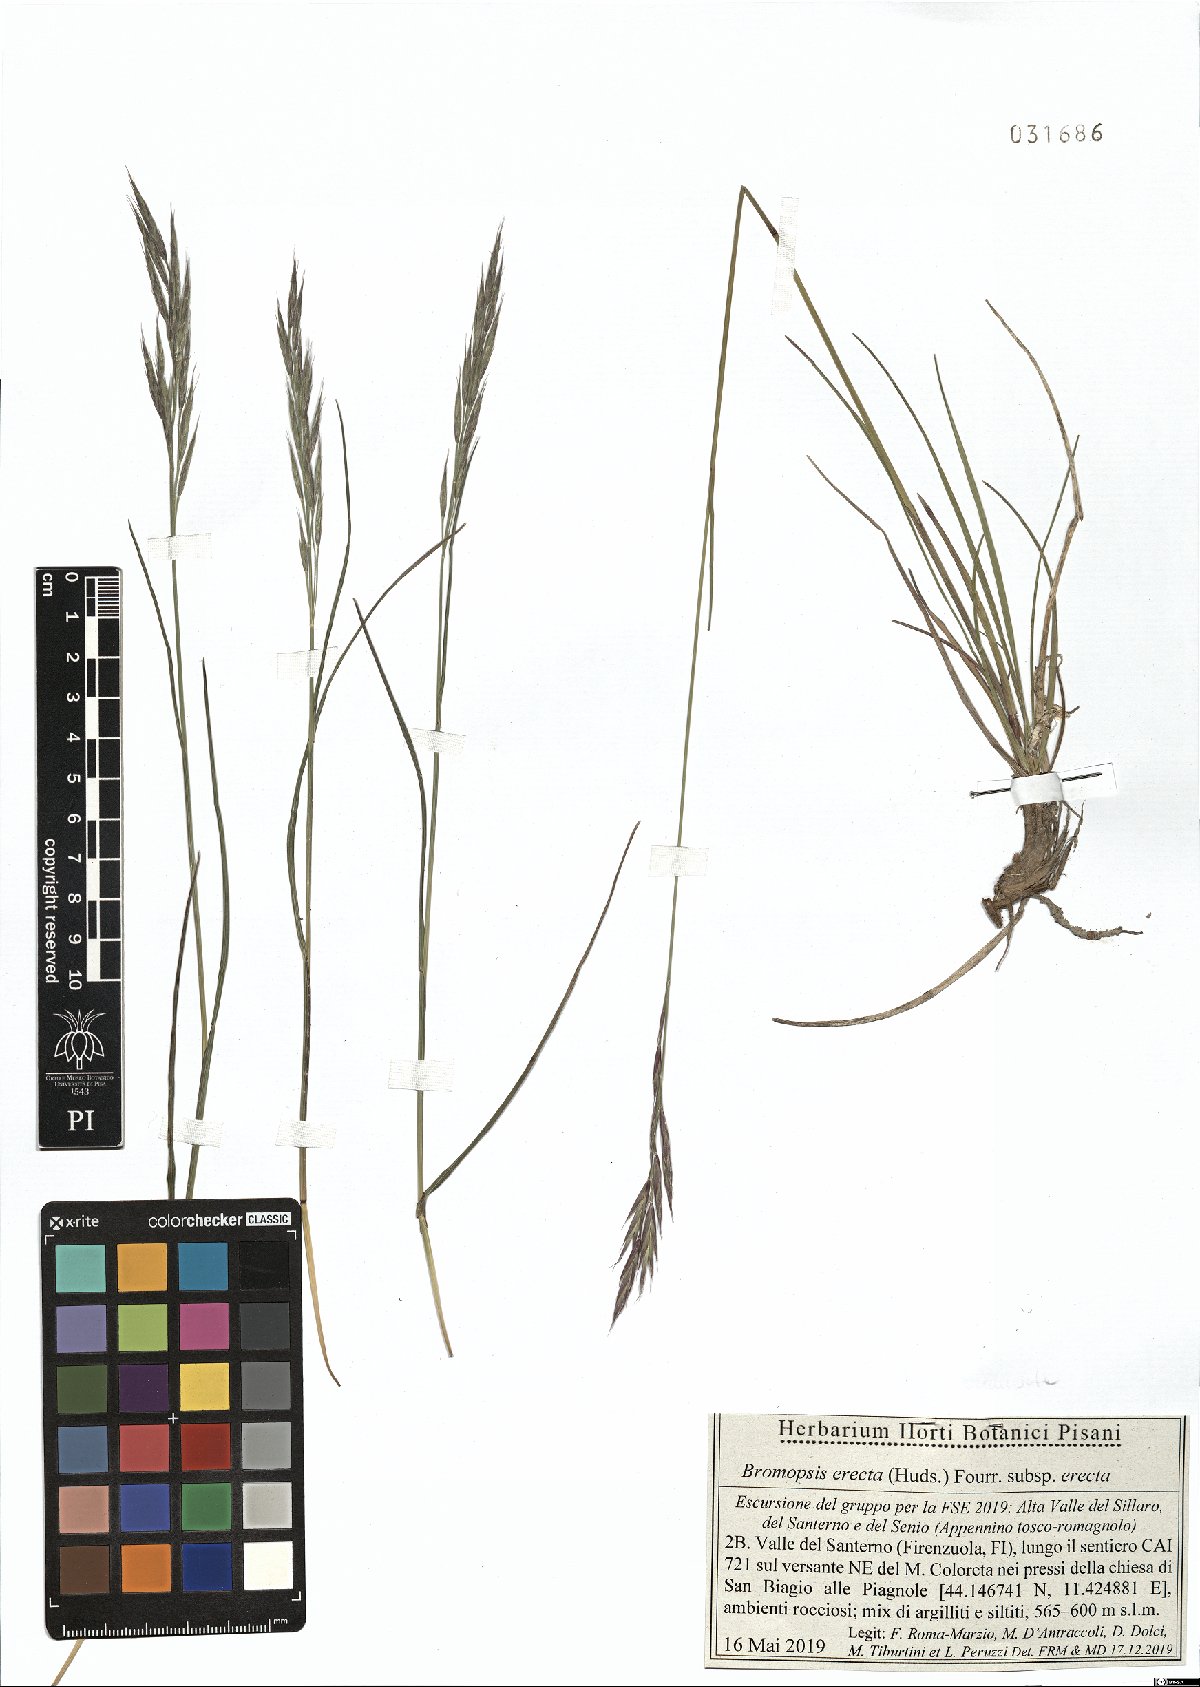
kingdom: Plantae
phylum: Tracheophyta
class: Liliopsida
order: Poales
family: Poaceae
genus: Bromus
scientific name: Bromus erectus
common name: Erect brome
